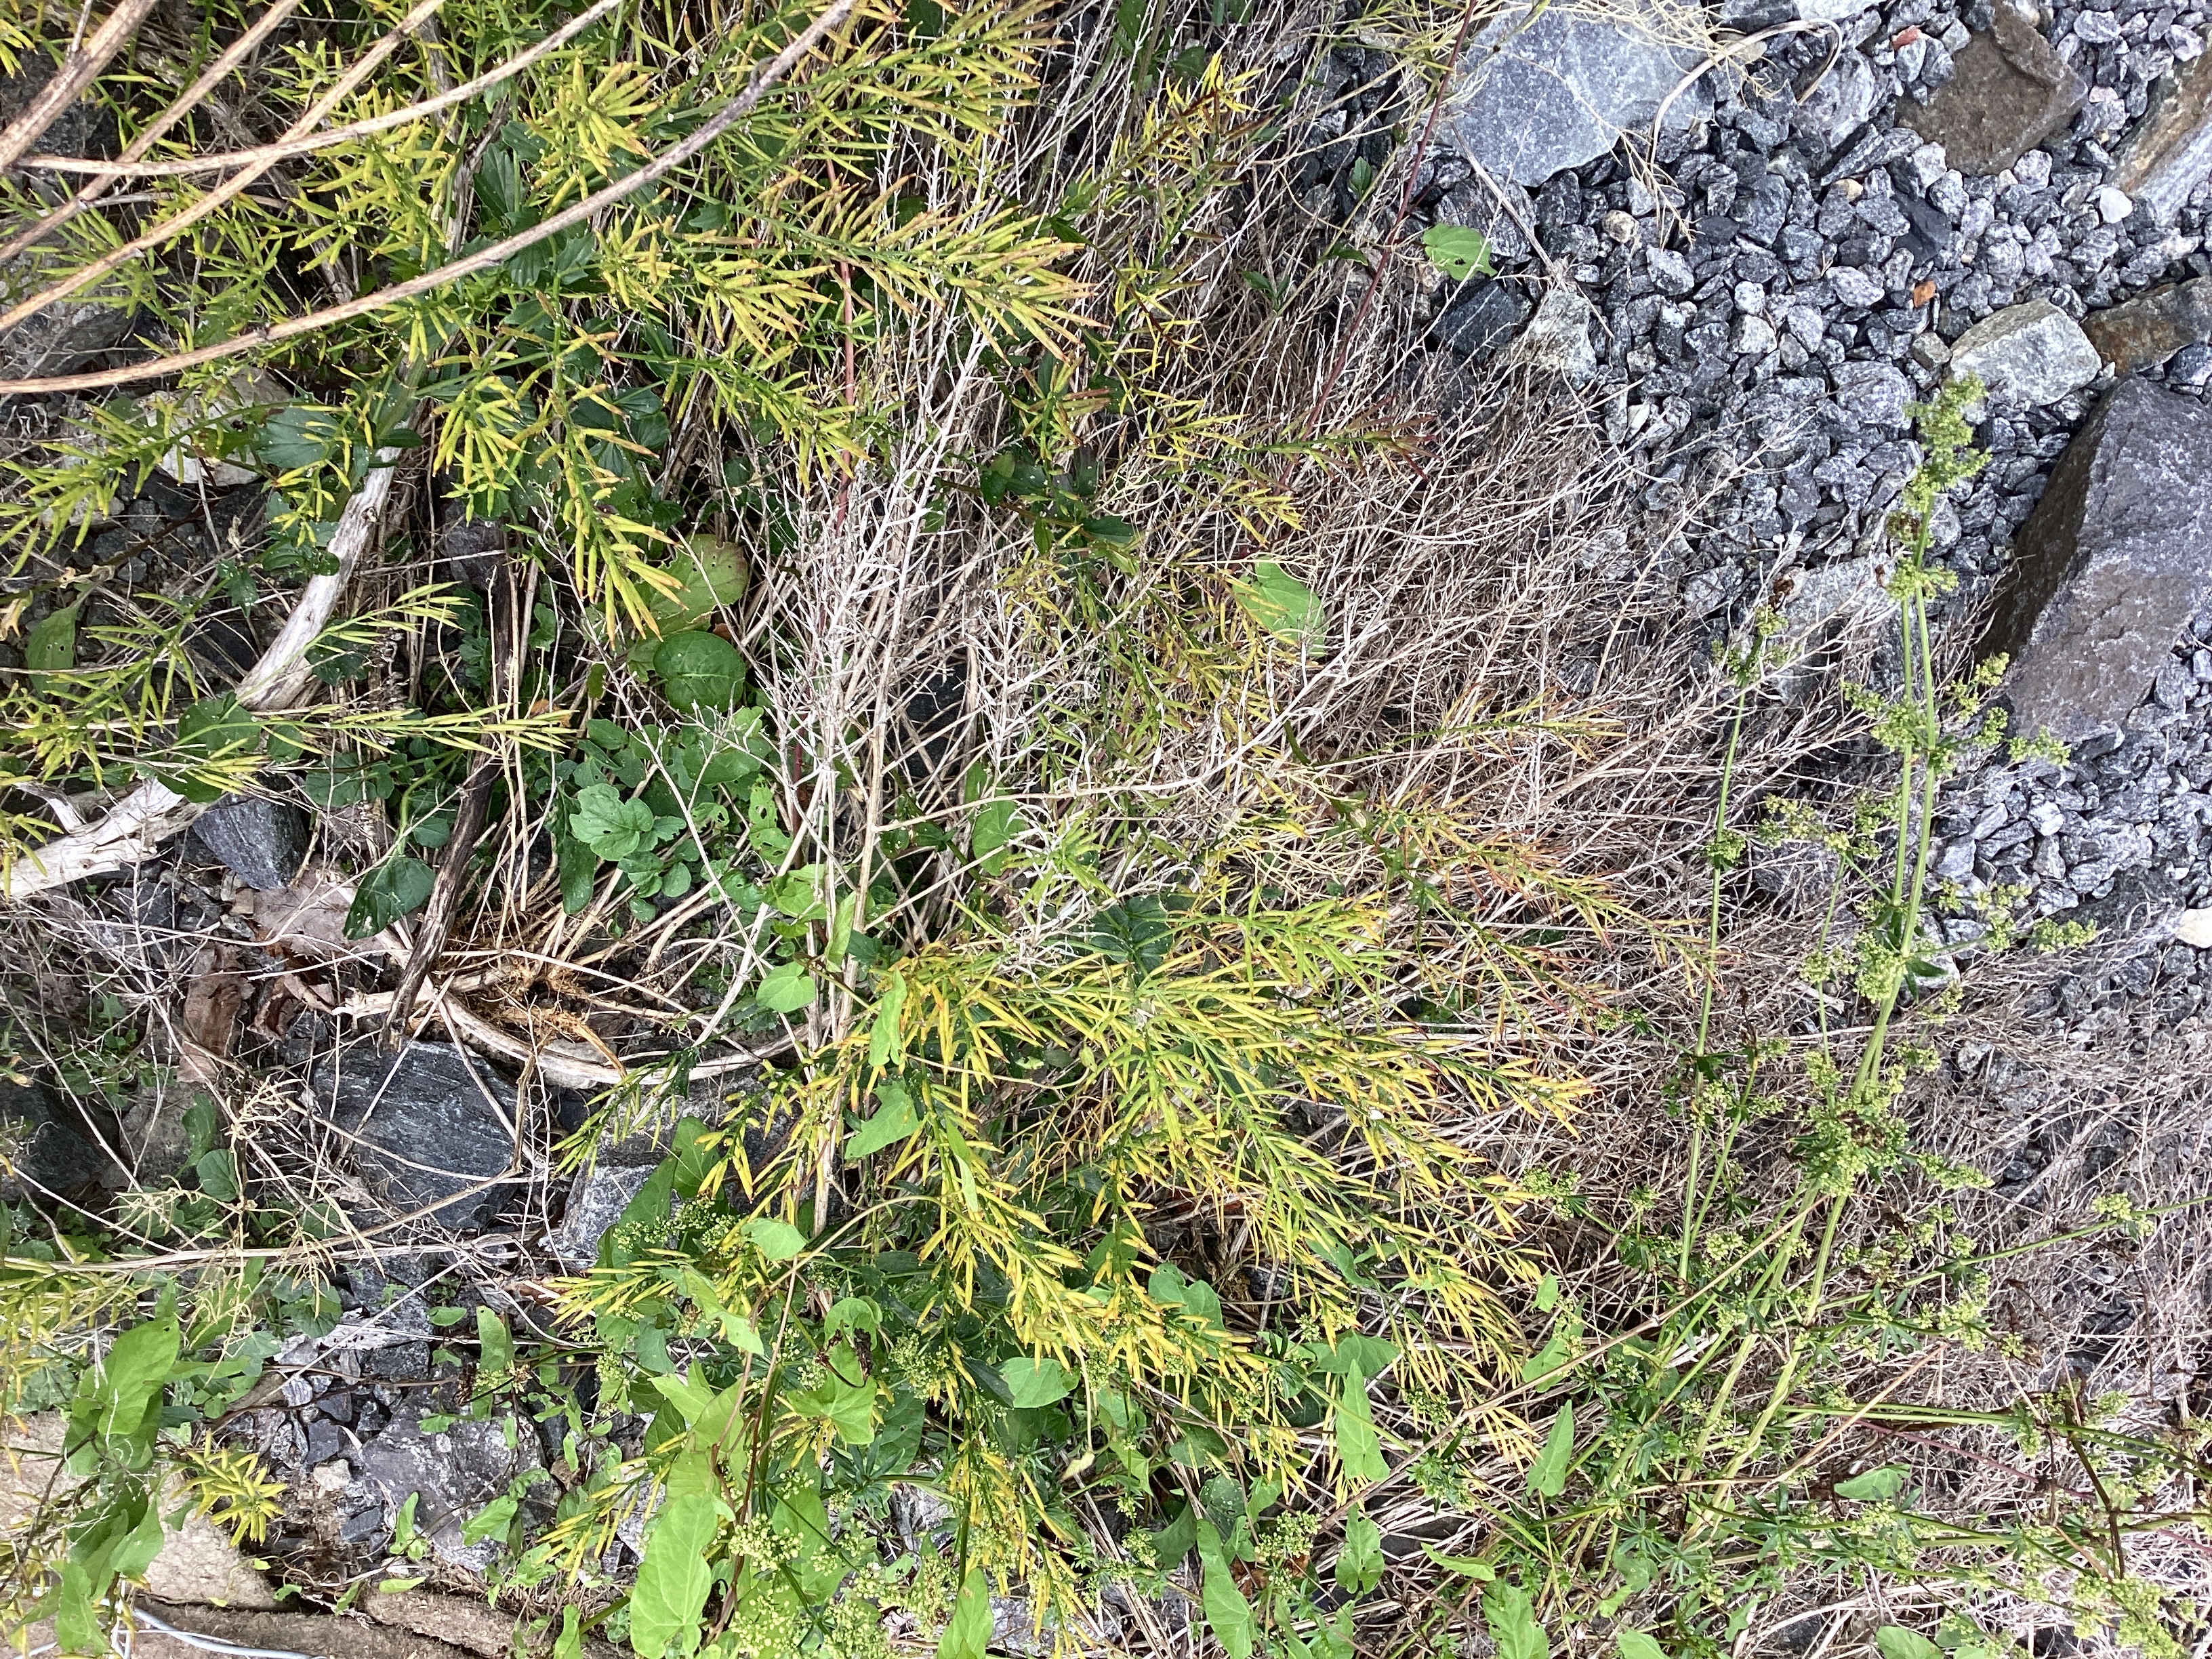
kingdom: Plantae
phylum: Tracheophyta
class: Magnoliopsida
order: Brassicales
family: Brassicaceae
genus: Barbarea
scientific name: Barbarea vulgaris
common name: vinterkarse
